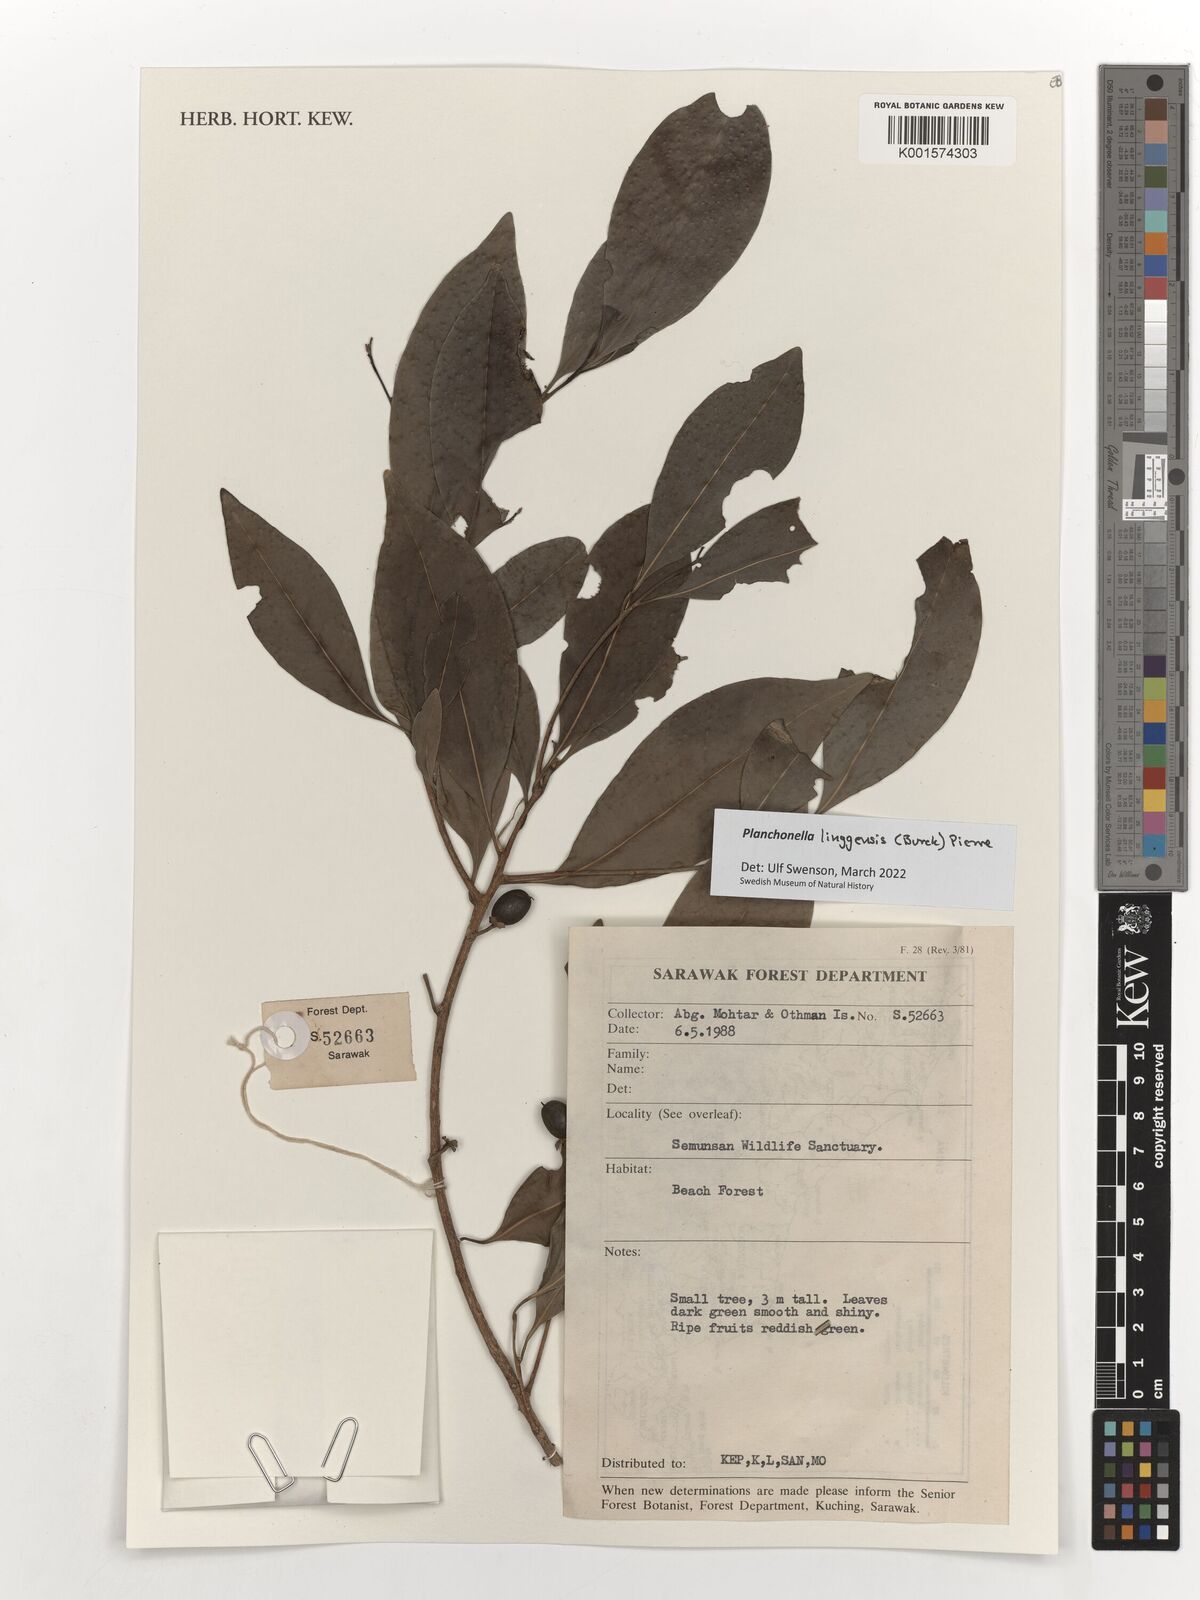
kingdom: Plantae
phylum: Tracheophyta
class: Magnoliopsida
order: Ericales
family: Sapotaceae
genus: Planchonella
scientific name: Planchonella chartacea
